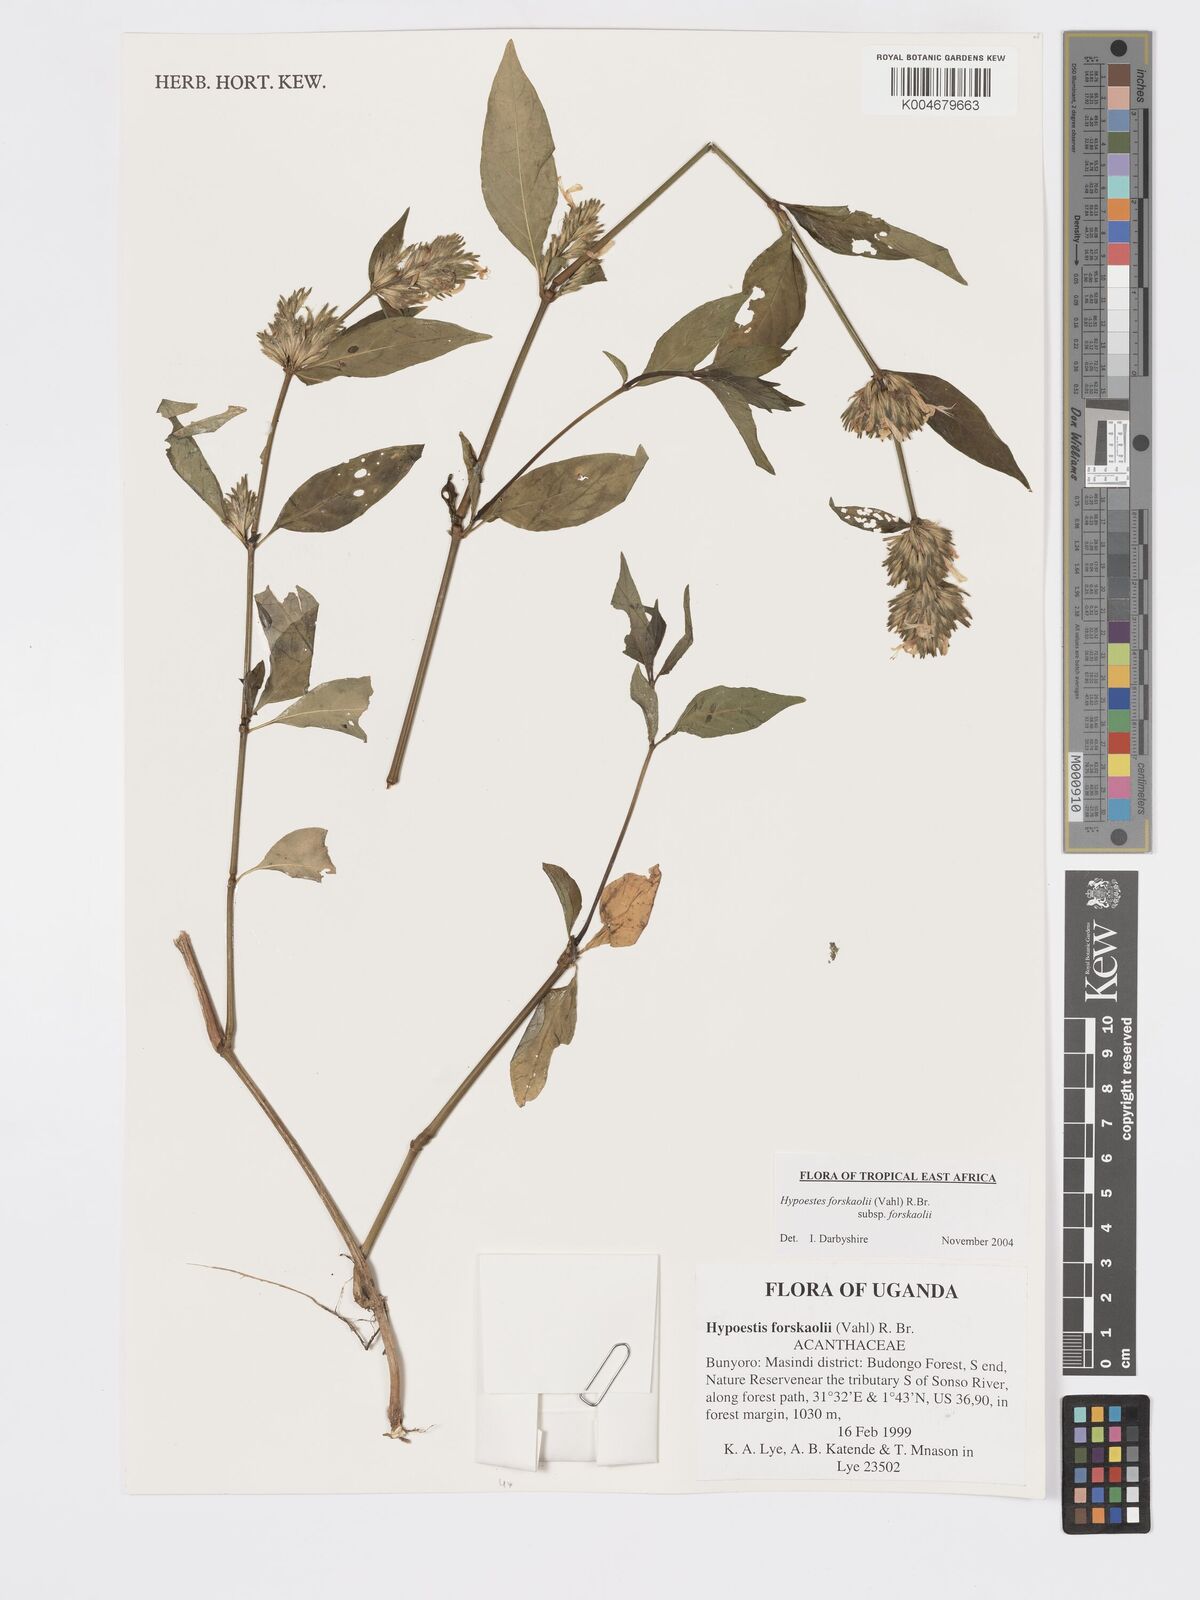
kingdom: Plantae
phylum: Tracheophyta
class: Magnoliopsida
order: Lamiales
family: Acanthaceae
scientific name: Acanthaceae
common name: Acanthaceae
